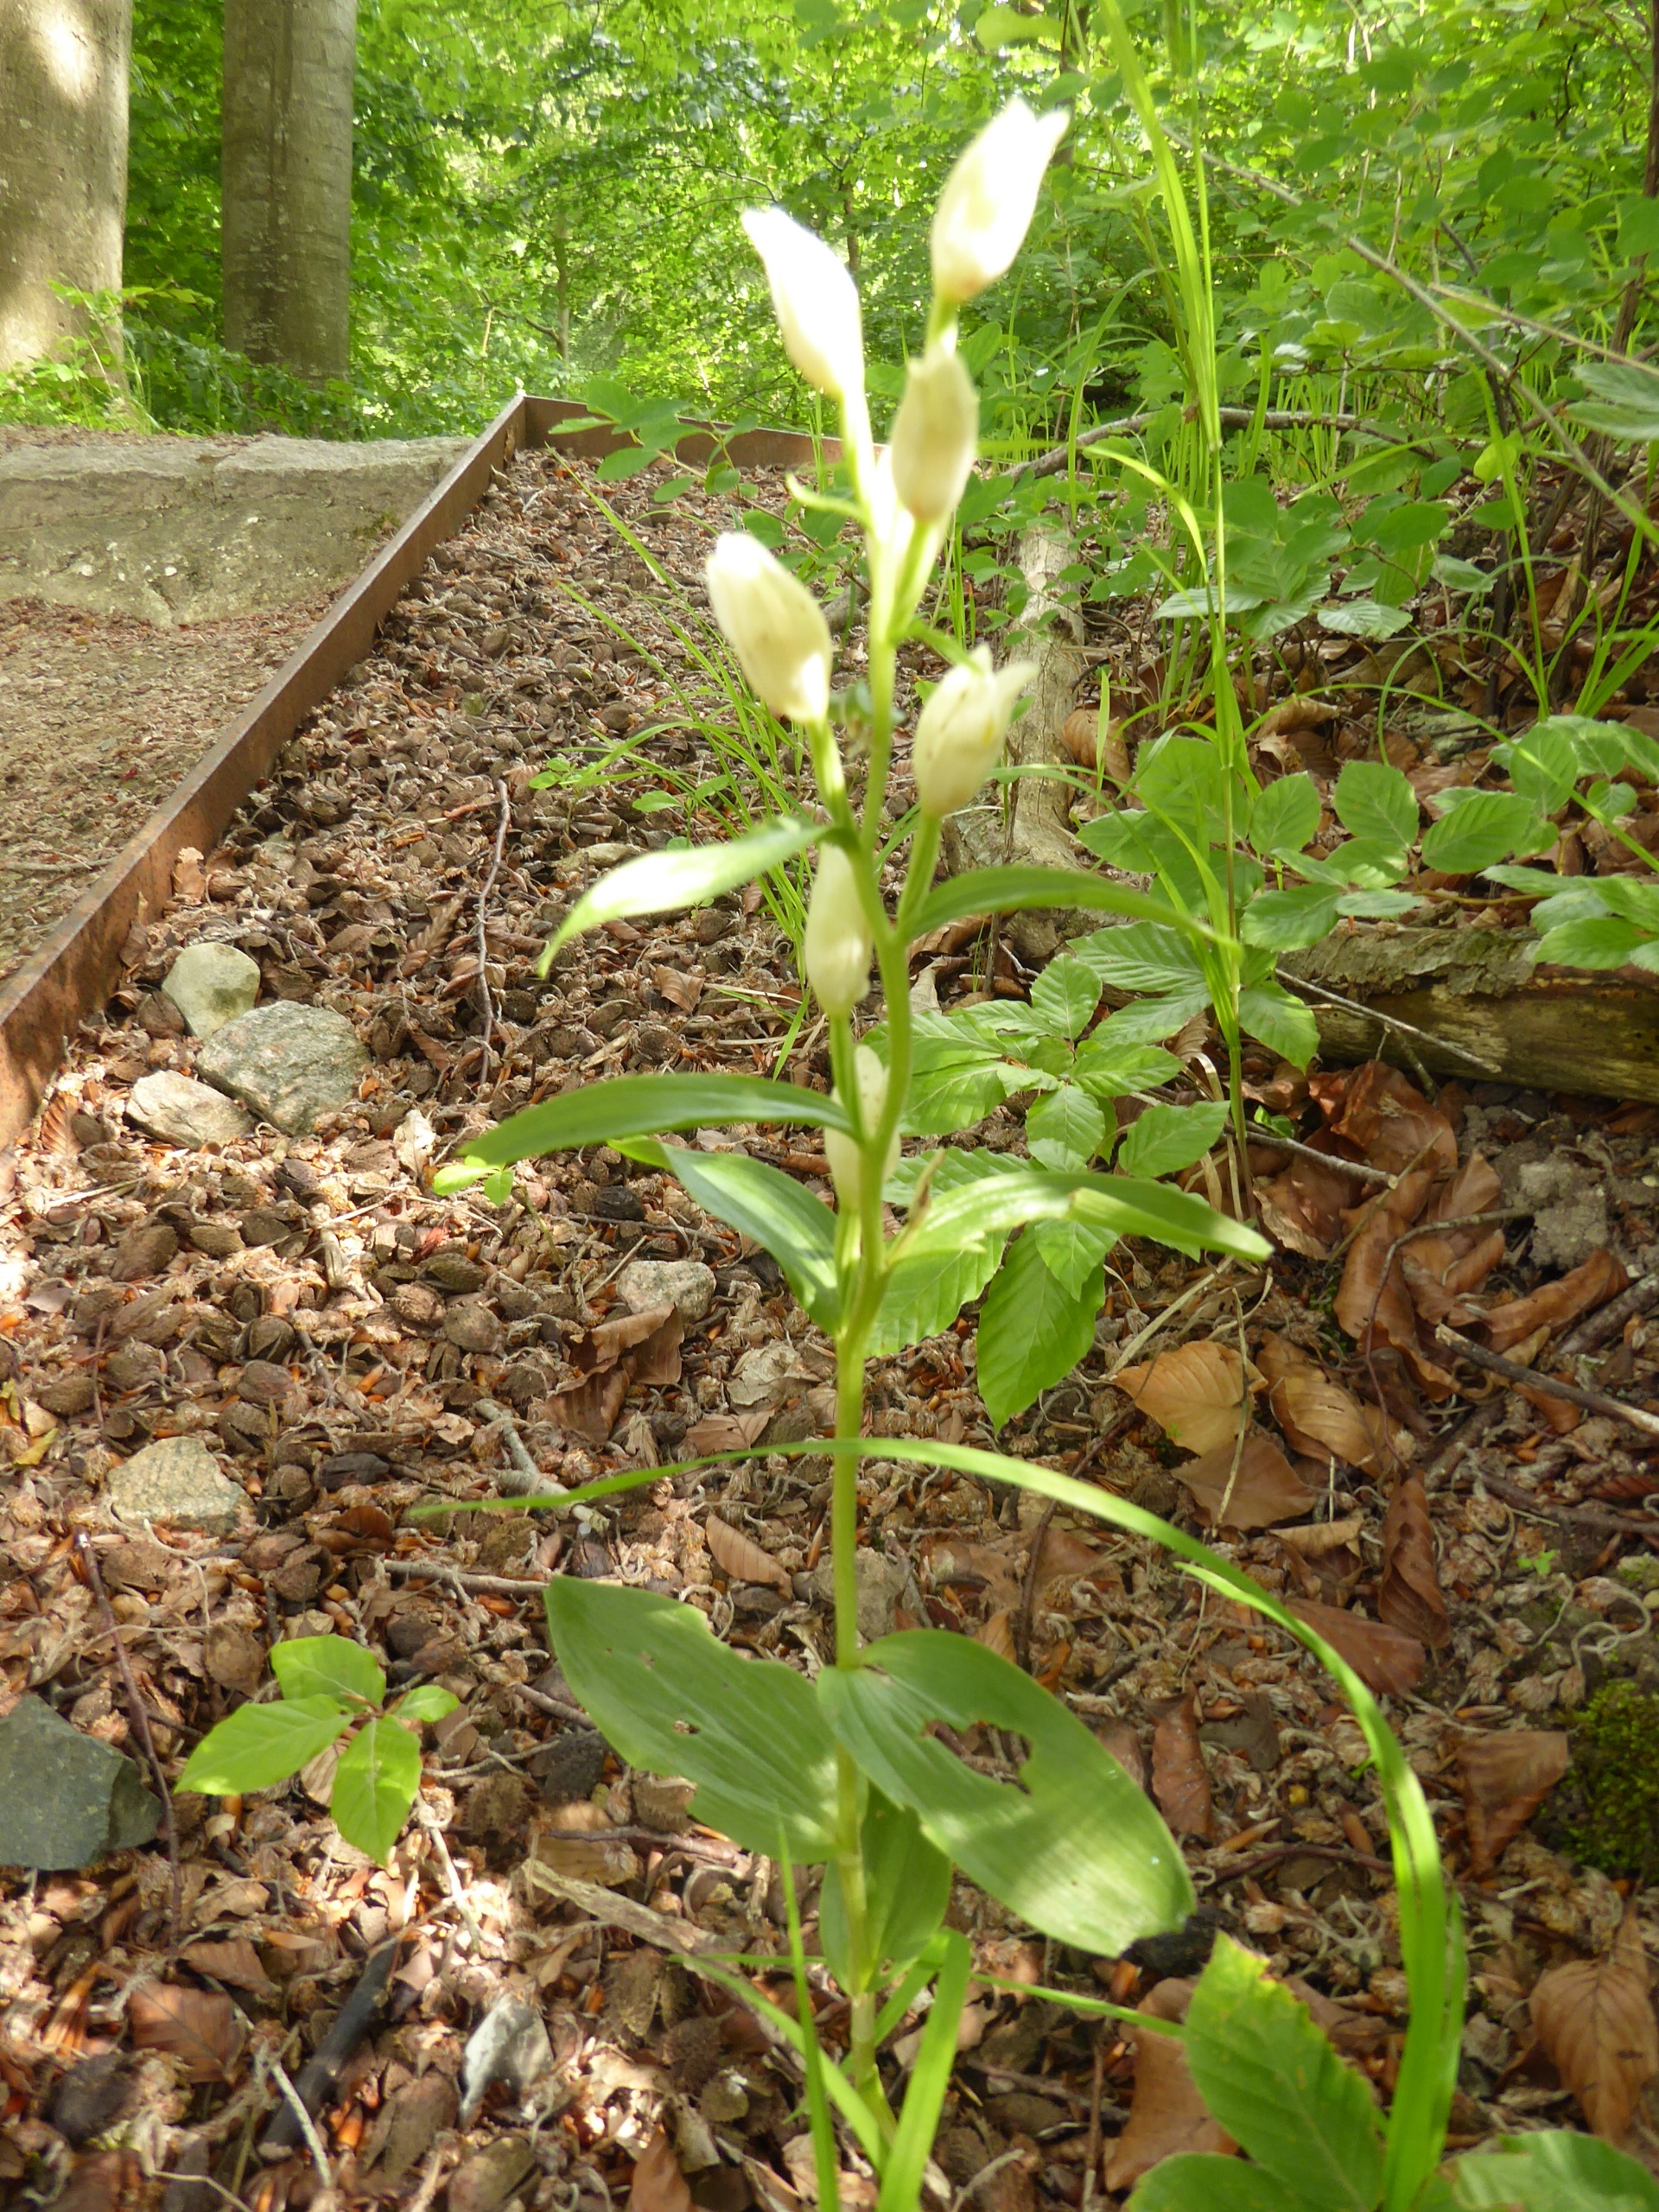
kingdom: Plantae
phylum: Tracheophyta
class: Liliopsida
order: Asparagales
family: Orchidaceae
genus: Cephalanthera
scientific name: Cephalanthera damasonium
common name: Hvidgul skovlilje
